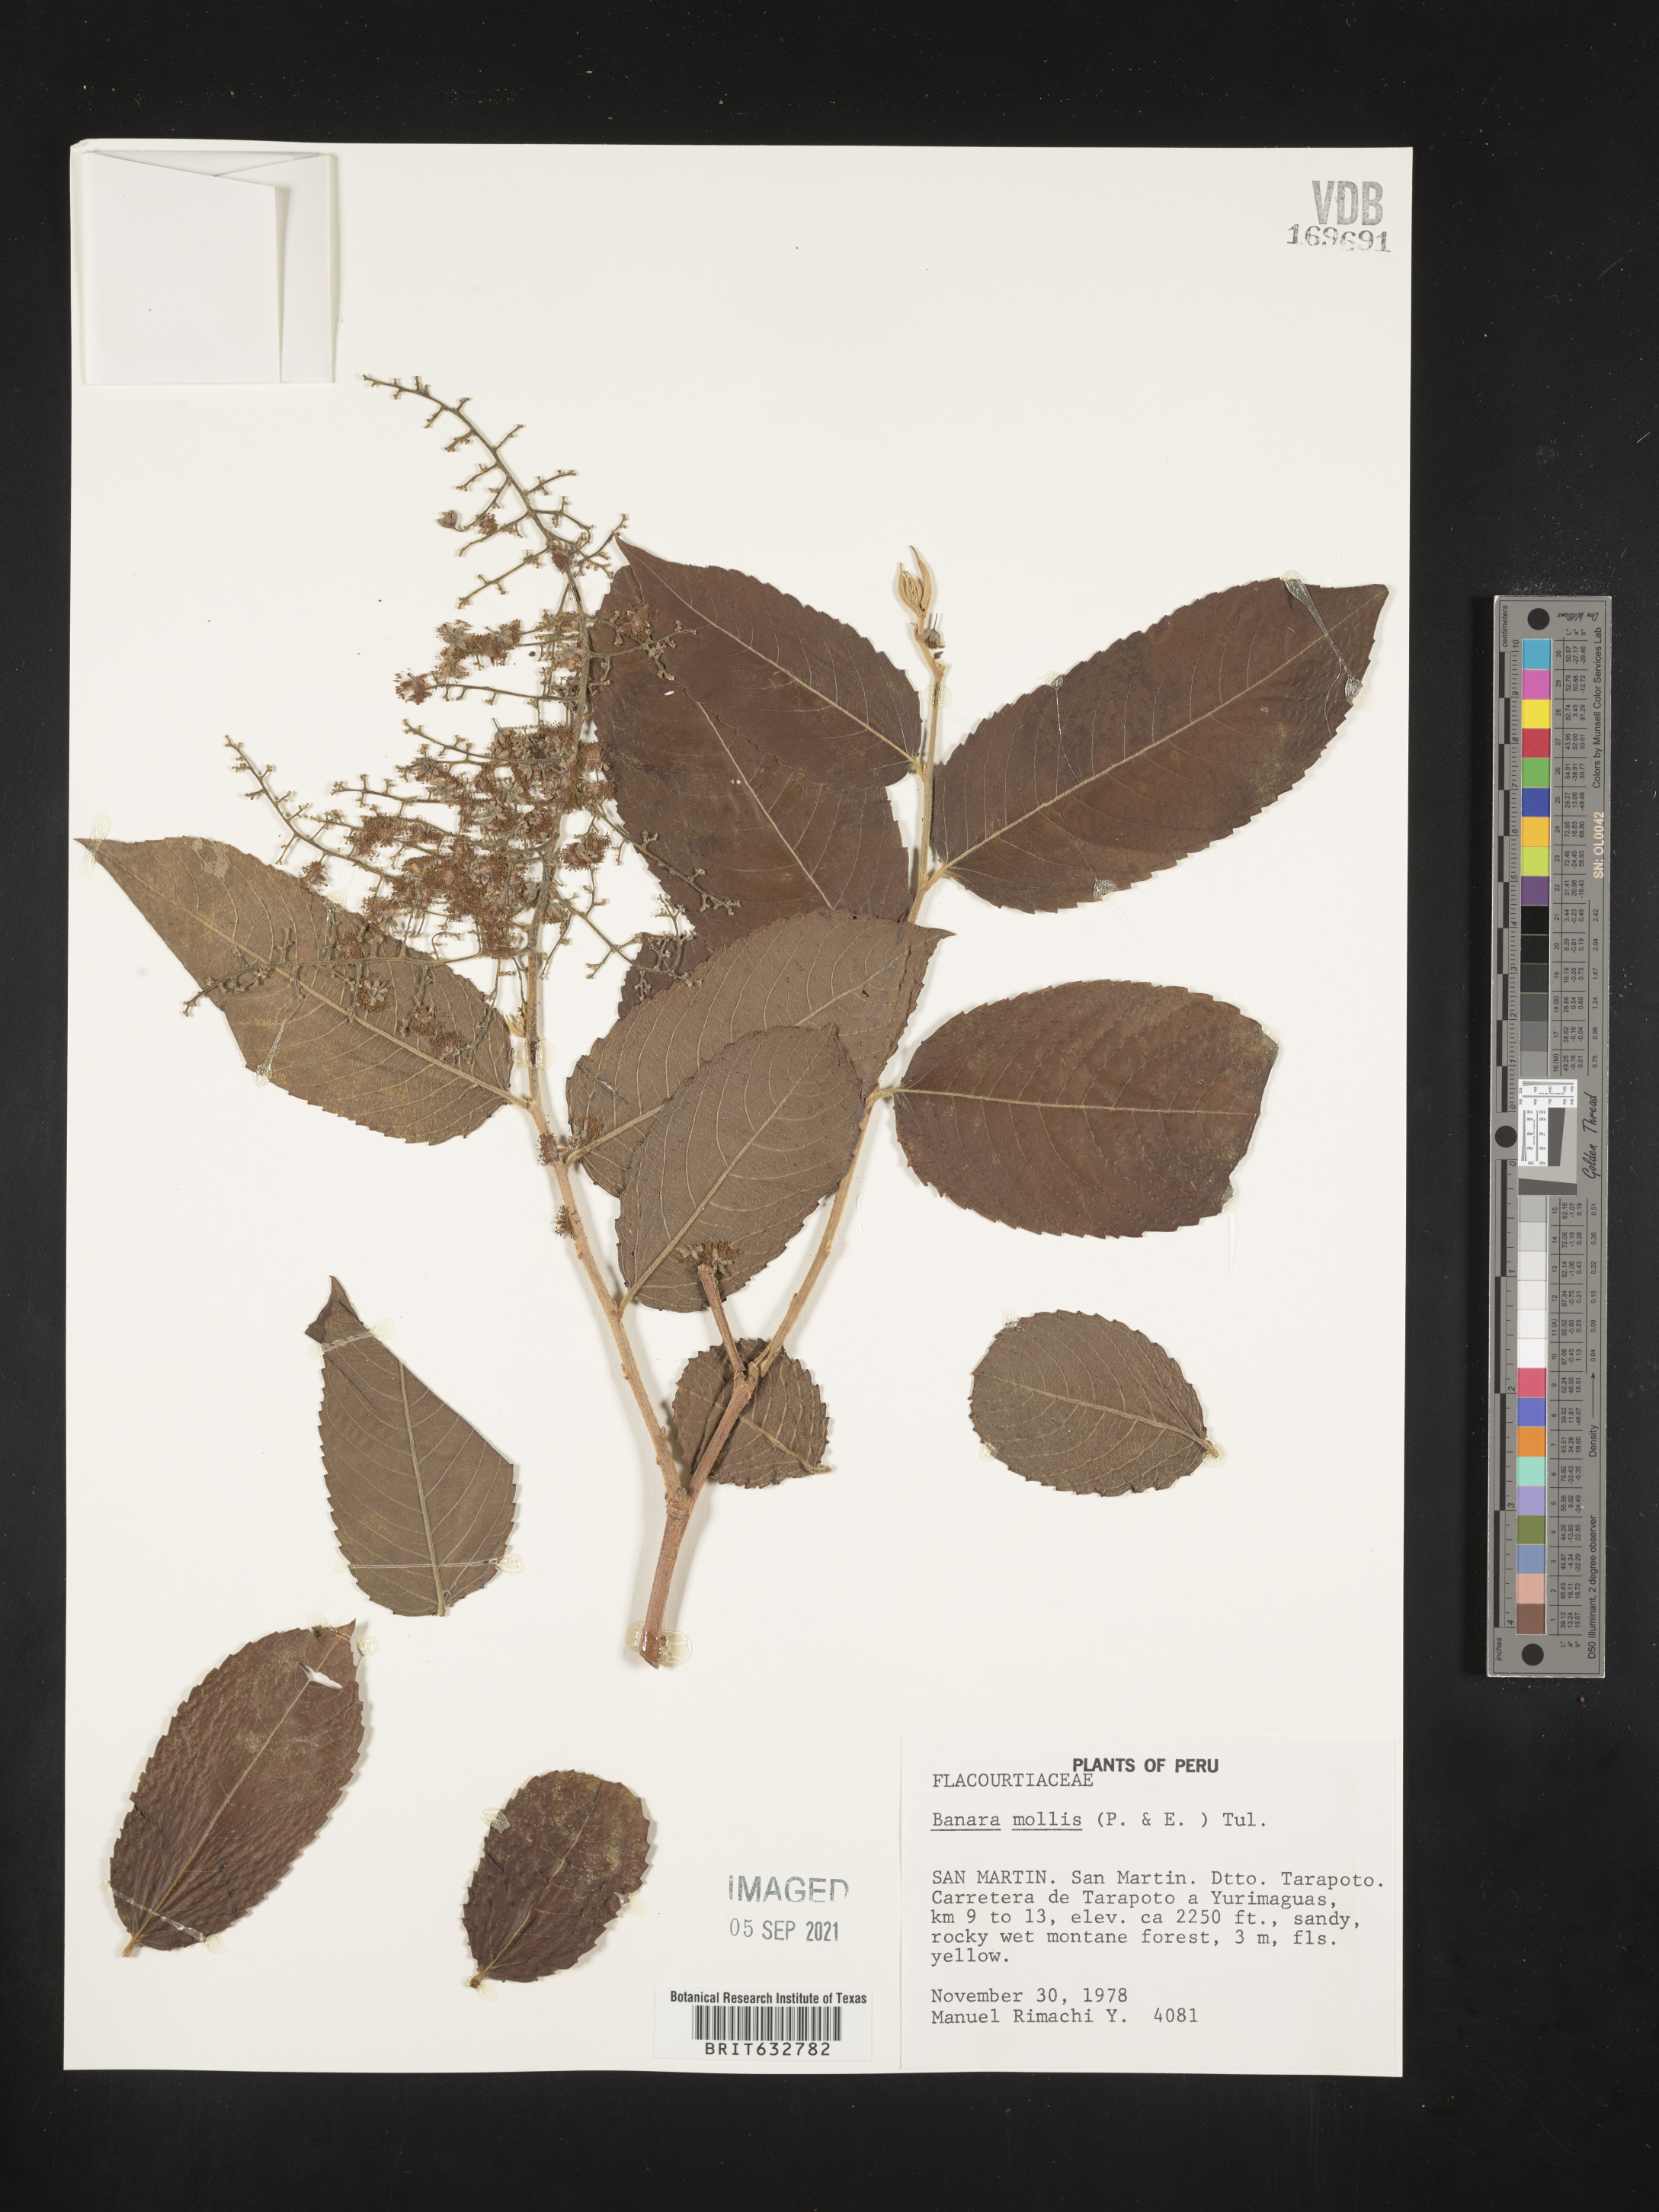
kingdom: Plantae
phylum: Tracheophyta
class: Magnoliopsida
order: Malpighiales
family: Salicaceae
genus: Banara
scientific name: Banara
